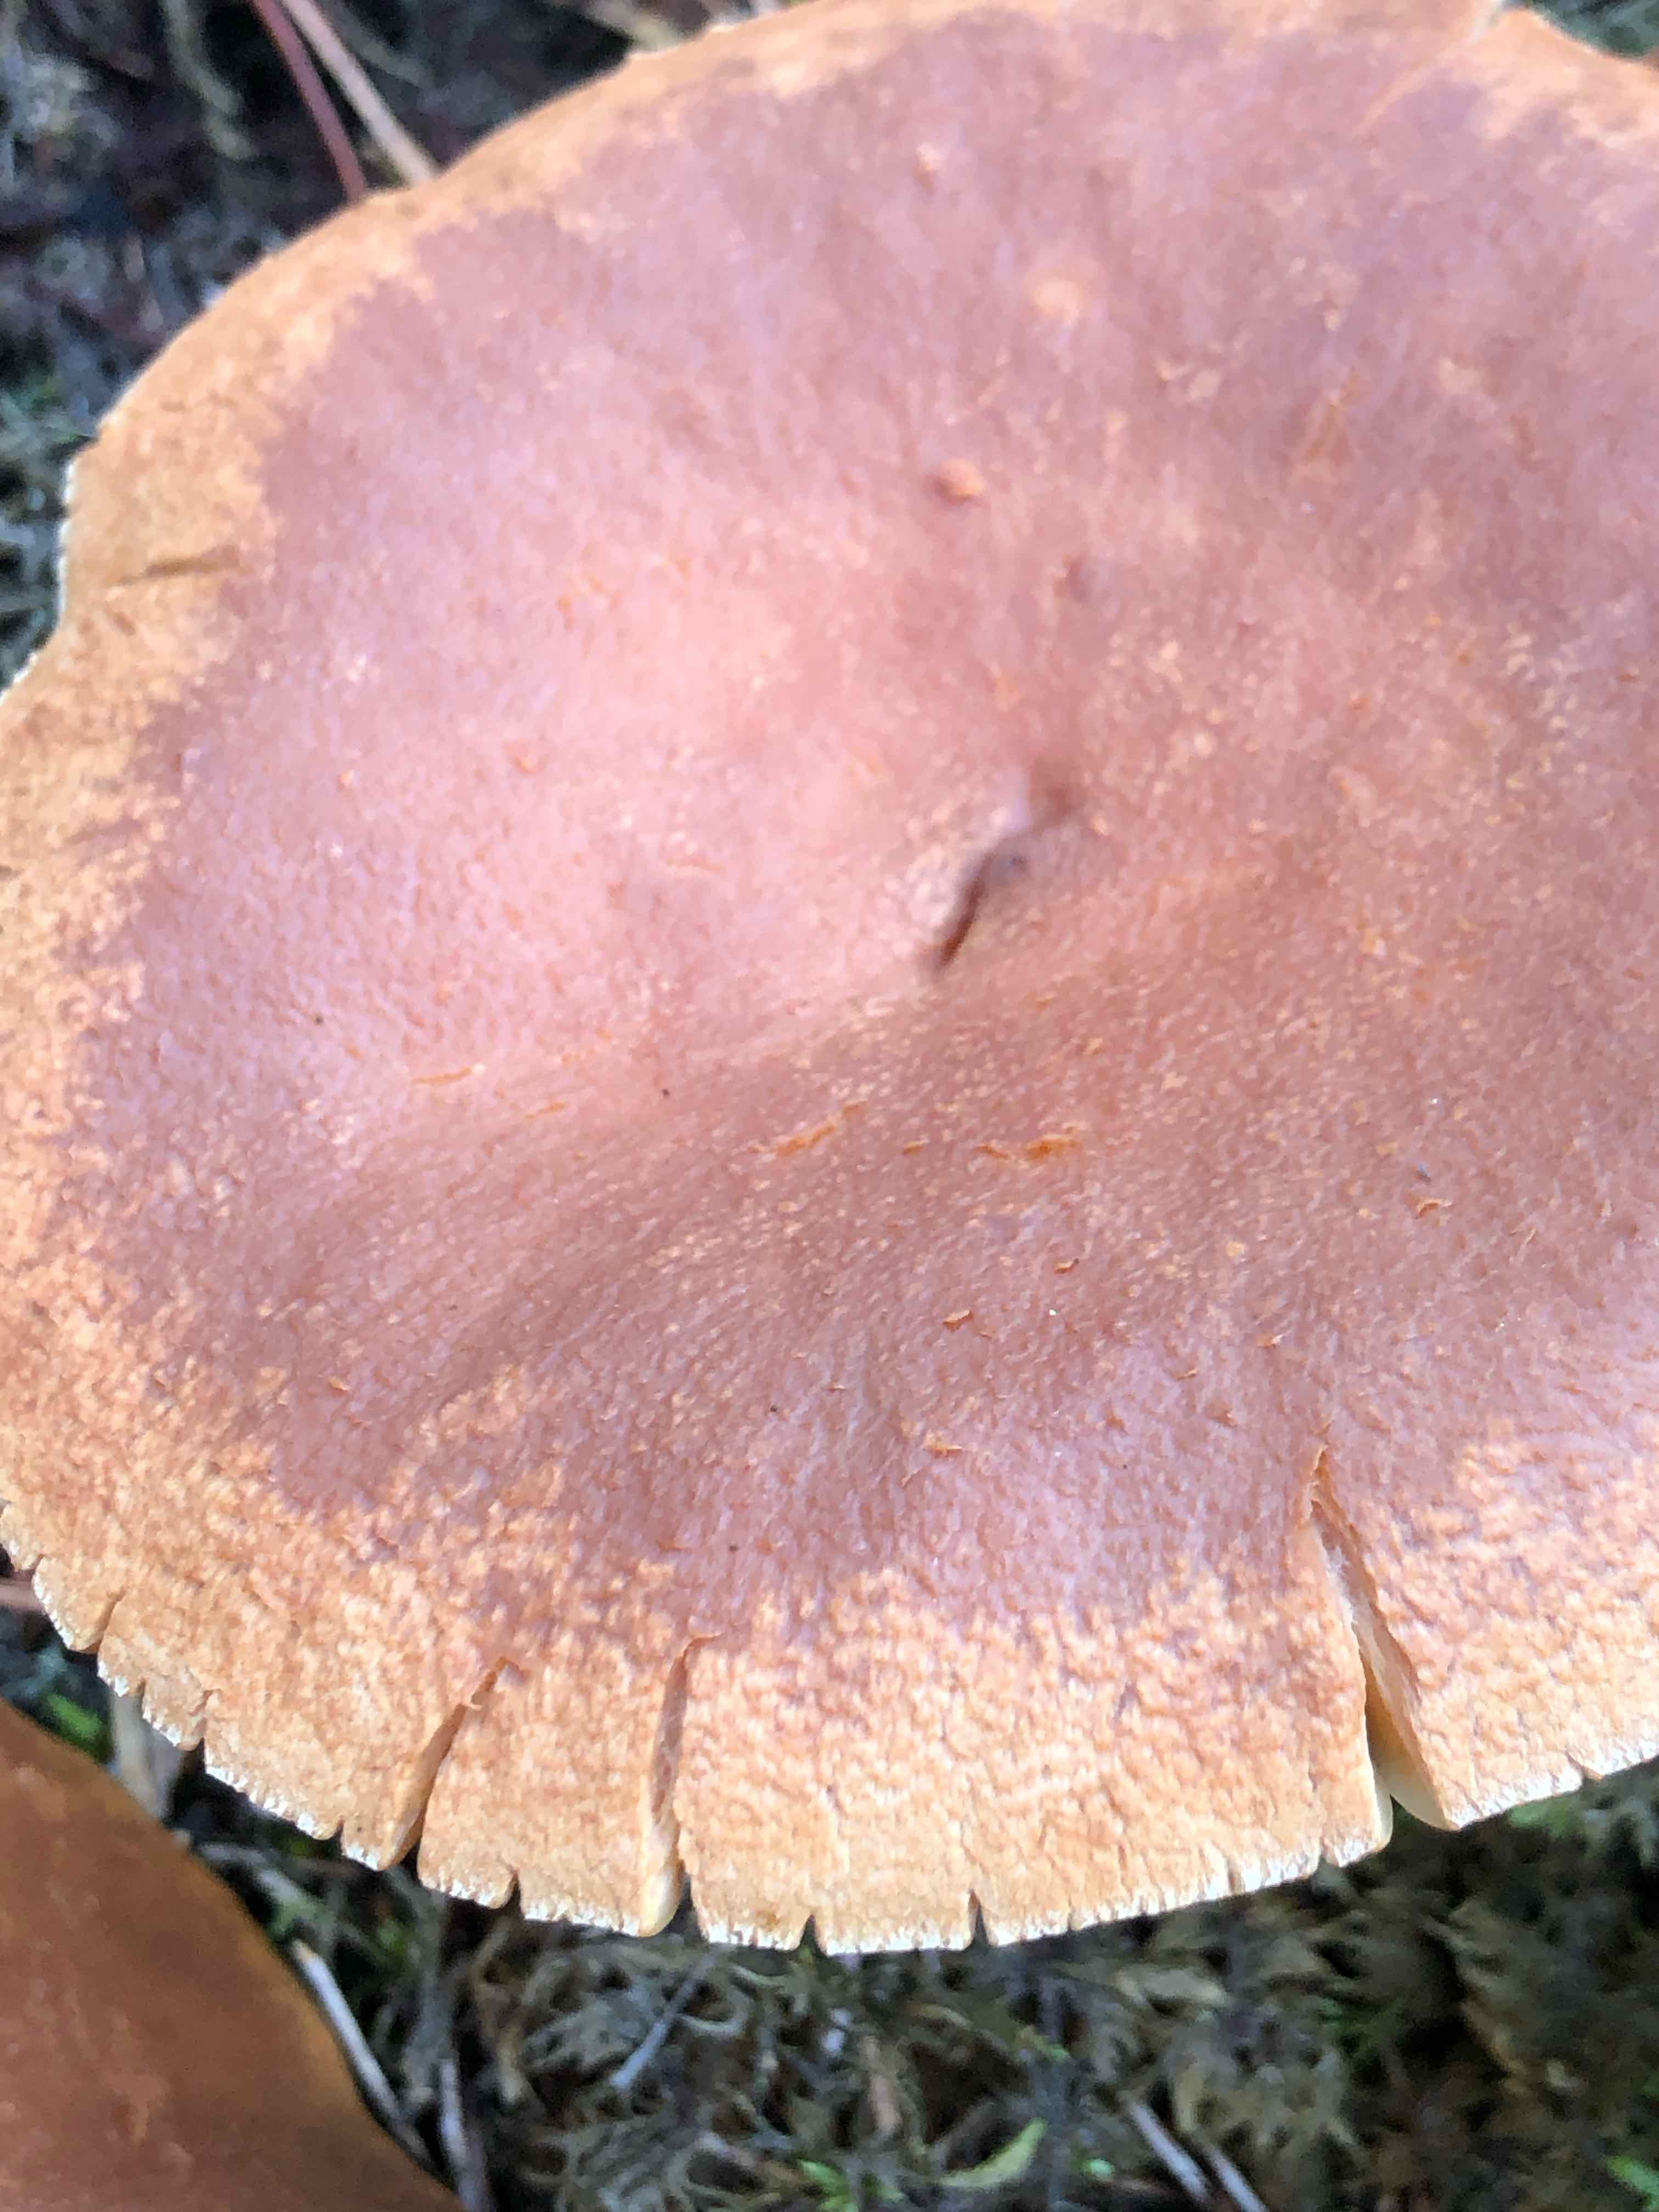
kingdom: Fungi
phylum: Basidiomycota
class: Agaricomycetes
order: Russulales
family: Russulaceae
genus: Lactarius
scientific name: Lactarius helvus
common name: mose-mælkehat
